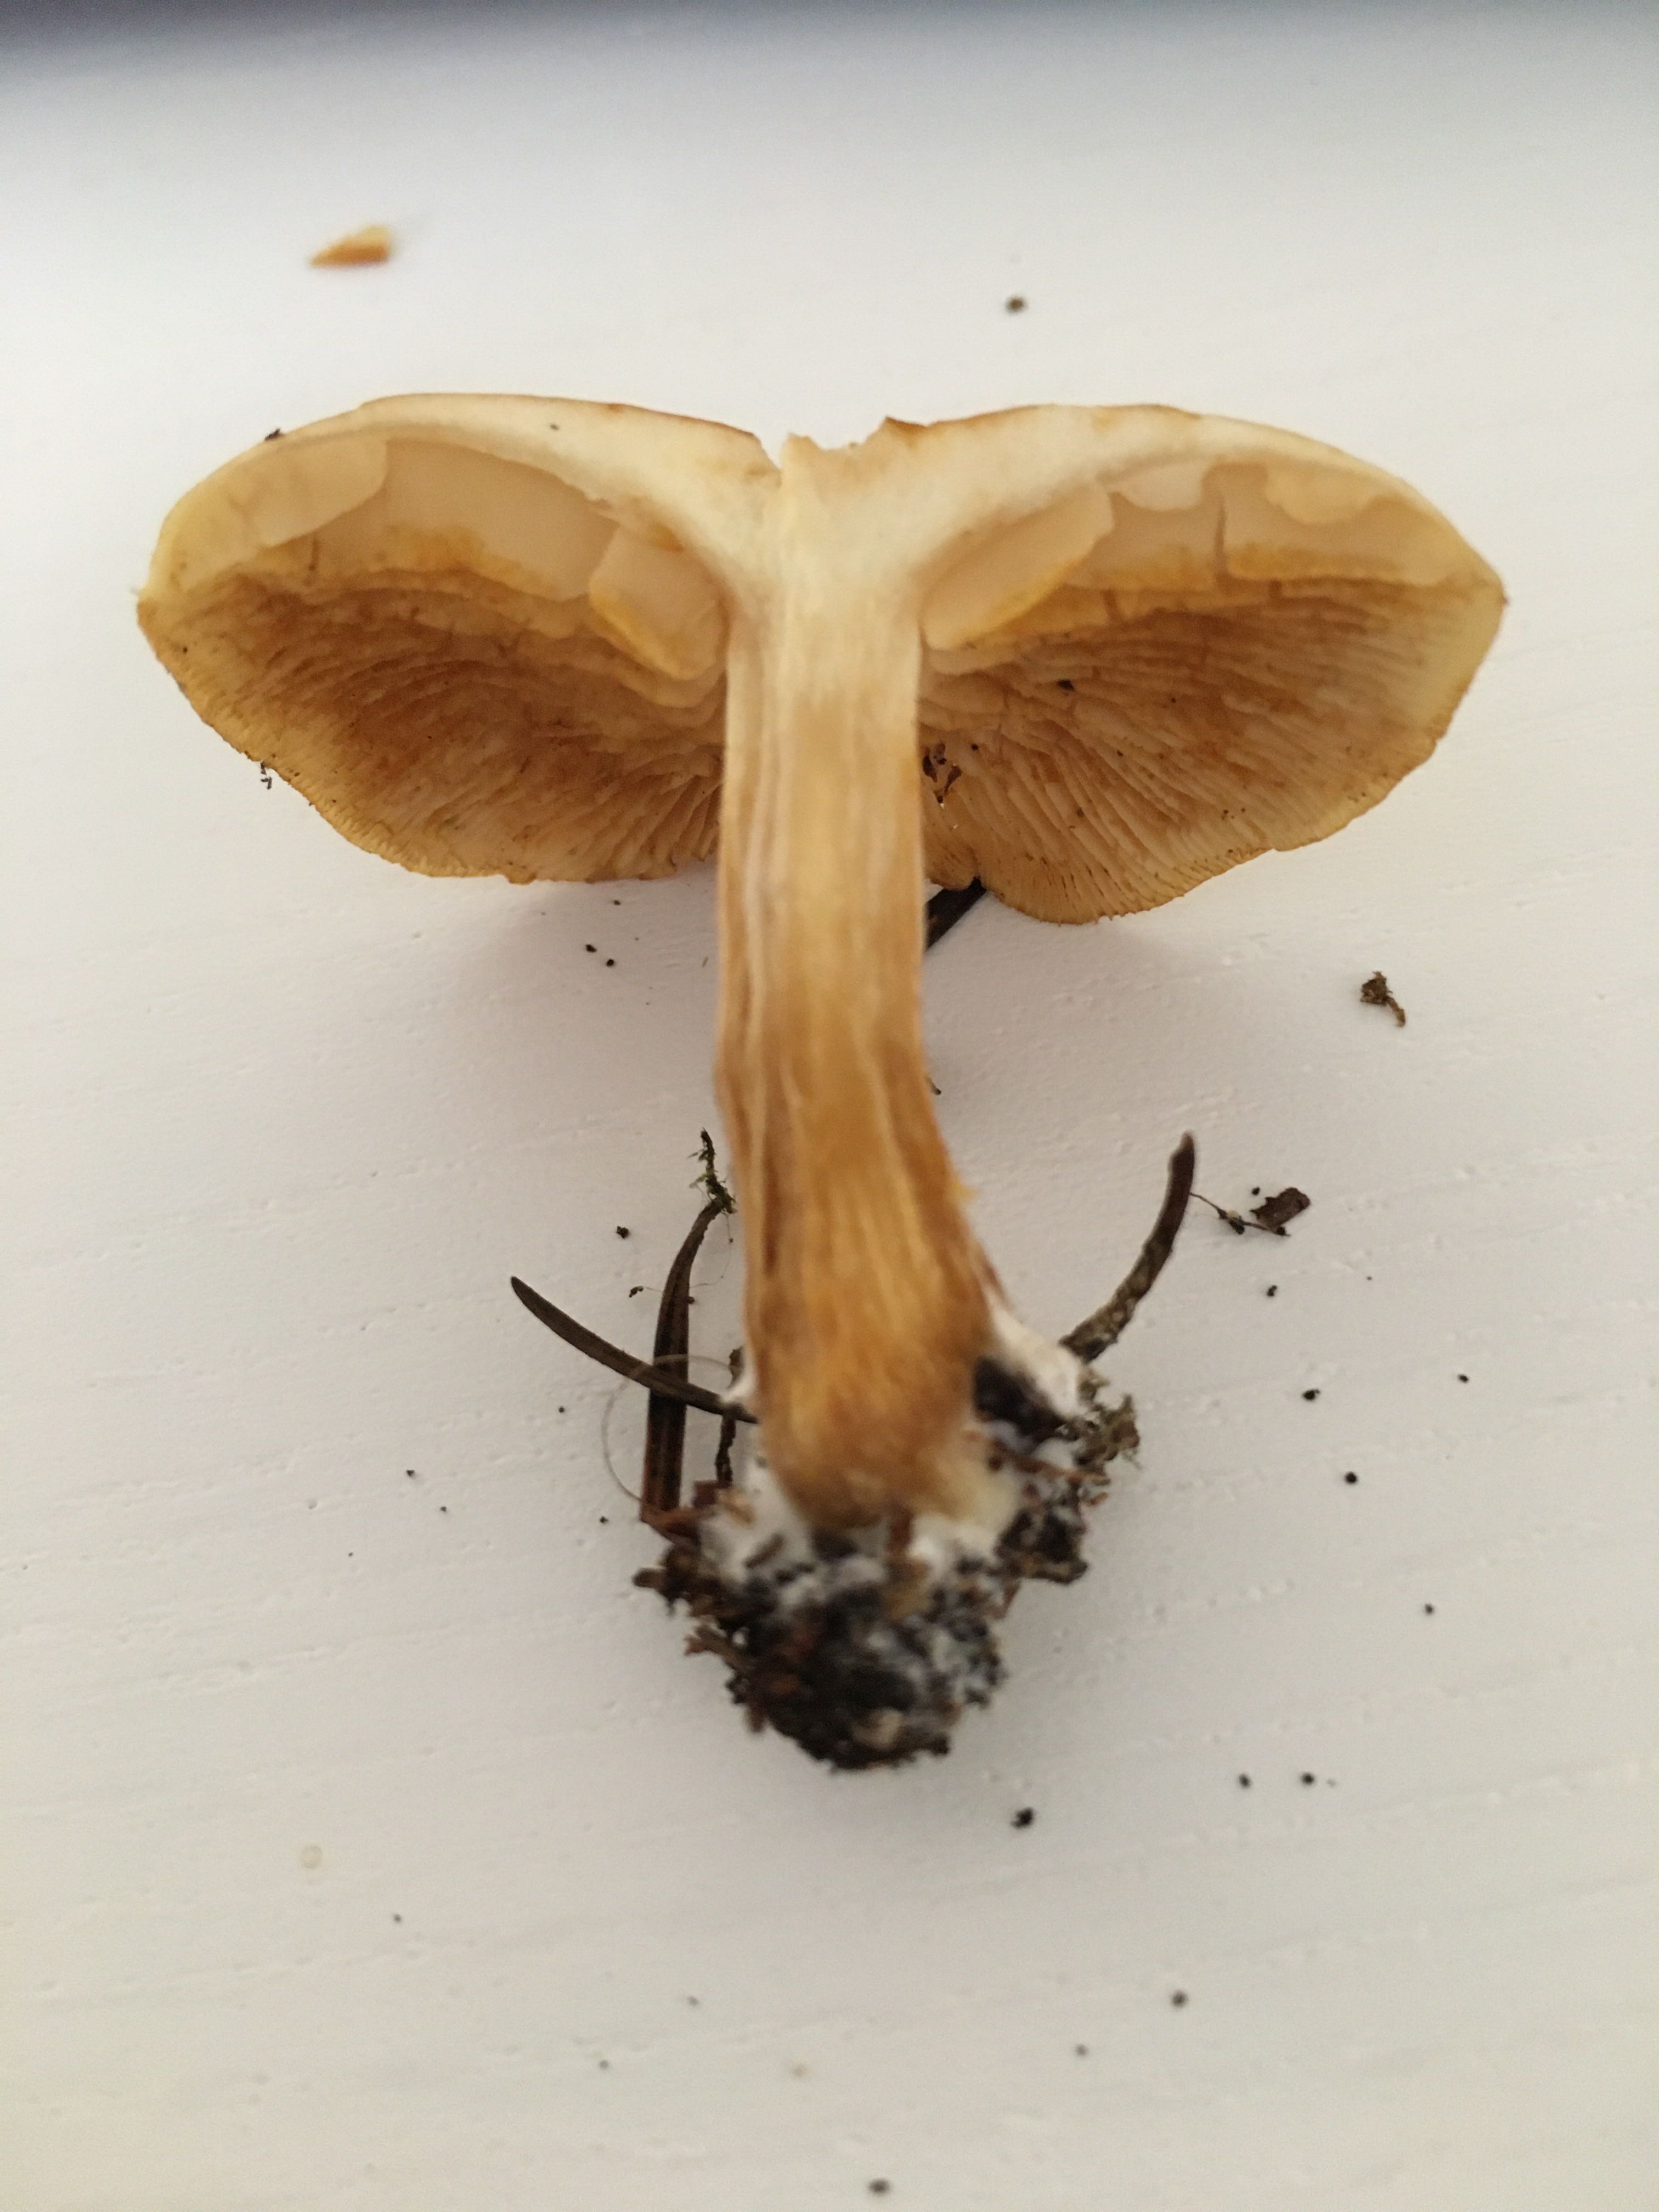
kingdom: Fungi
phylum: Basidiomycota
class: Agaricomycetes
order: Agaricales
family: Hymenogastraceae
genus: Gymnopilus
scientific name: Gymnopilus penetrans
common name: plettet flammehat
